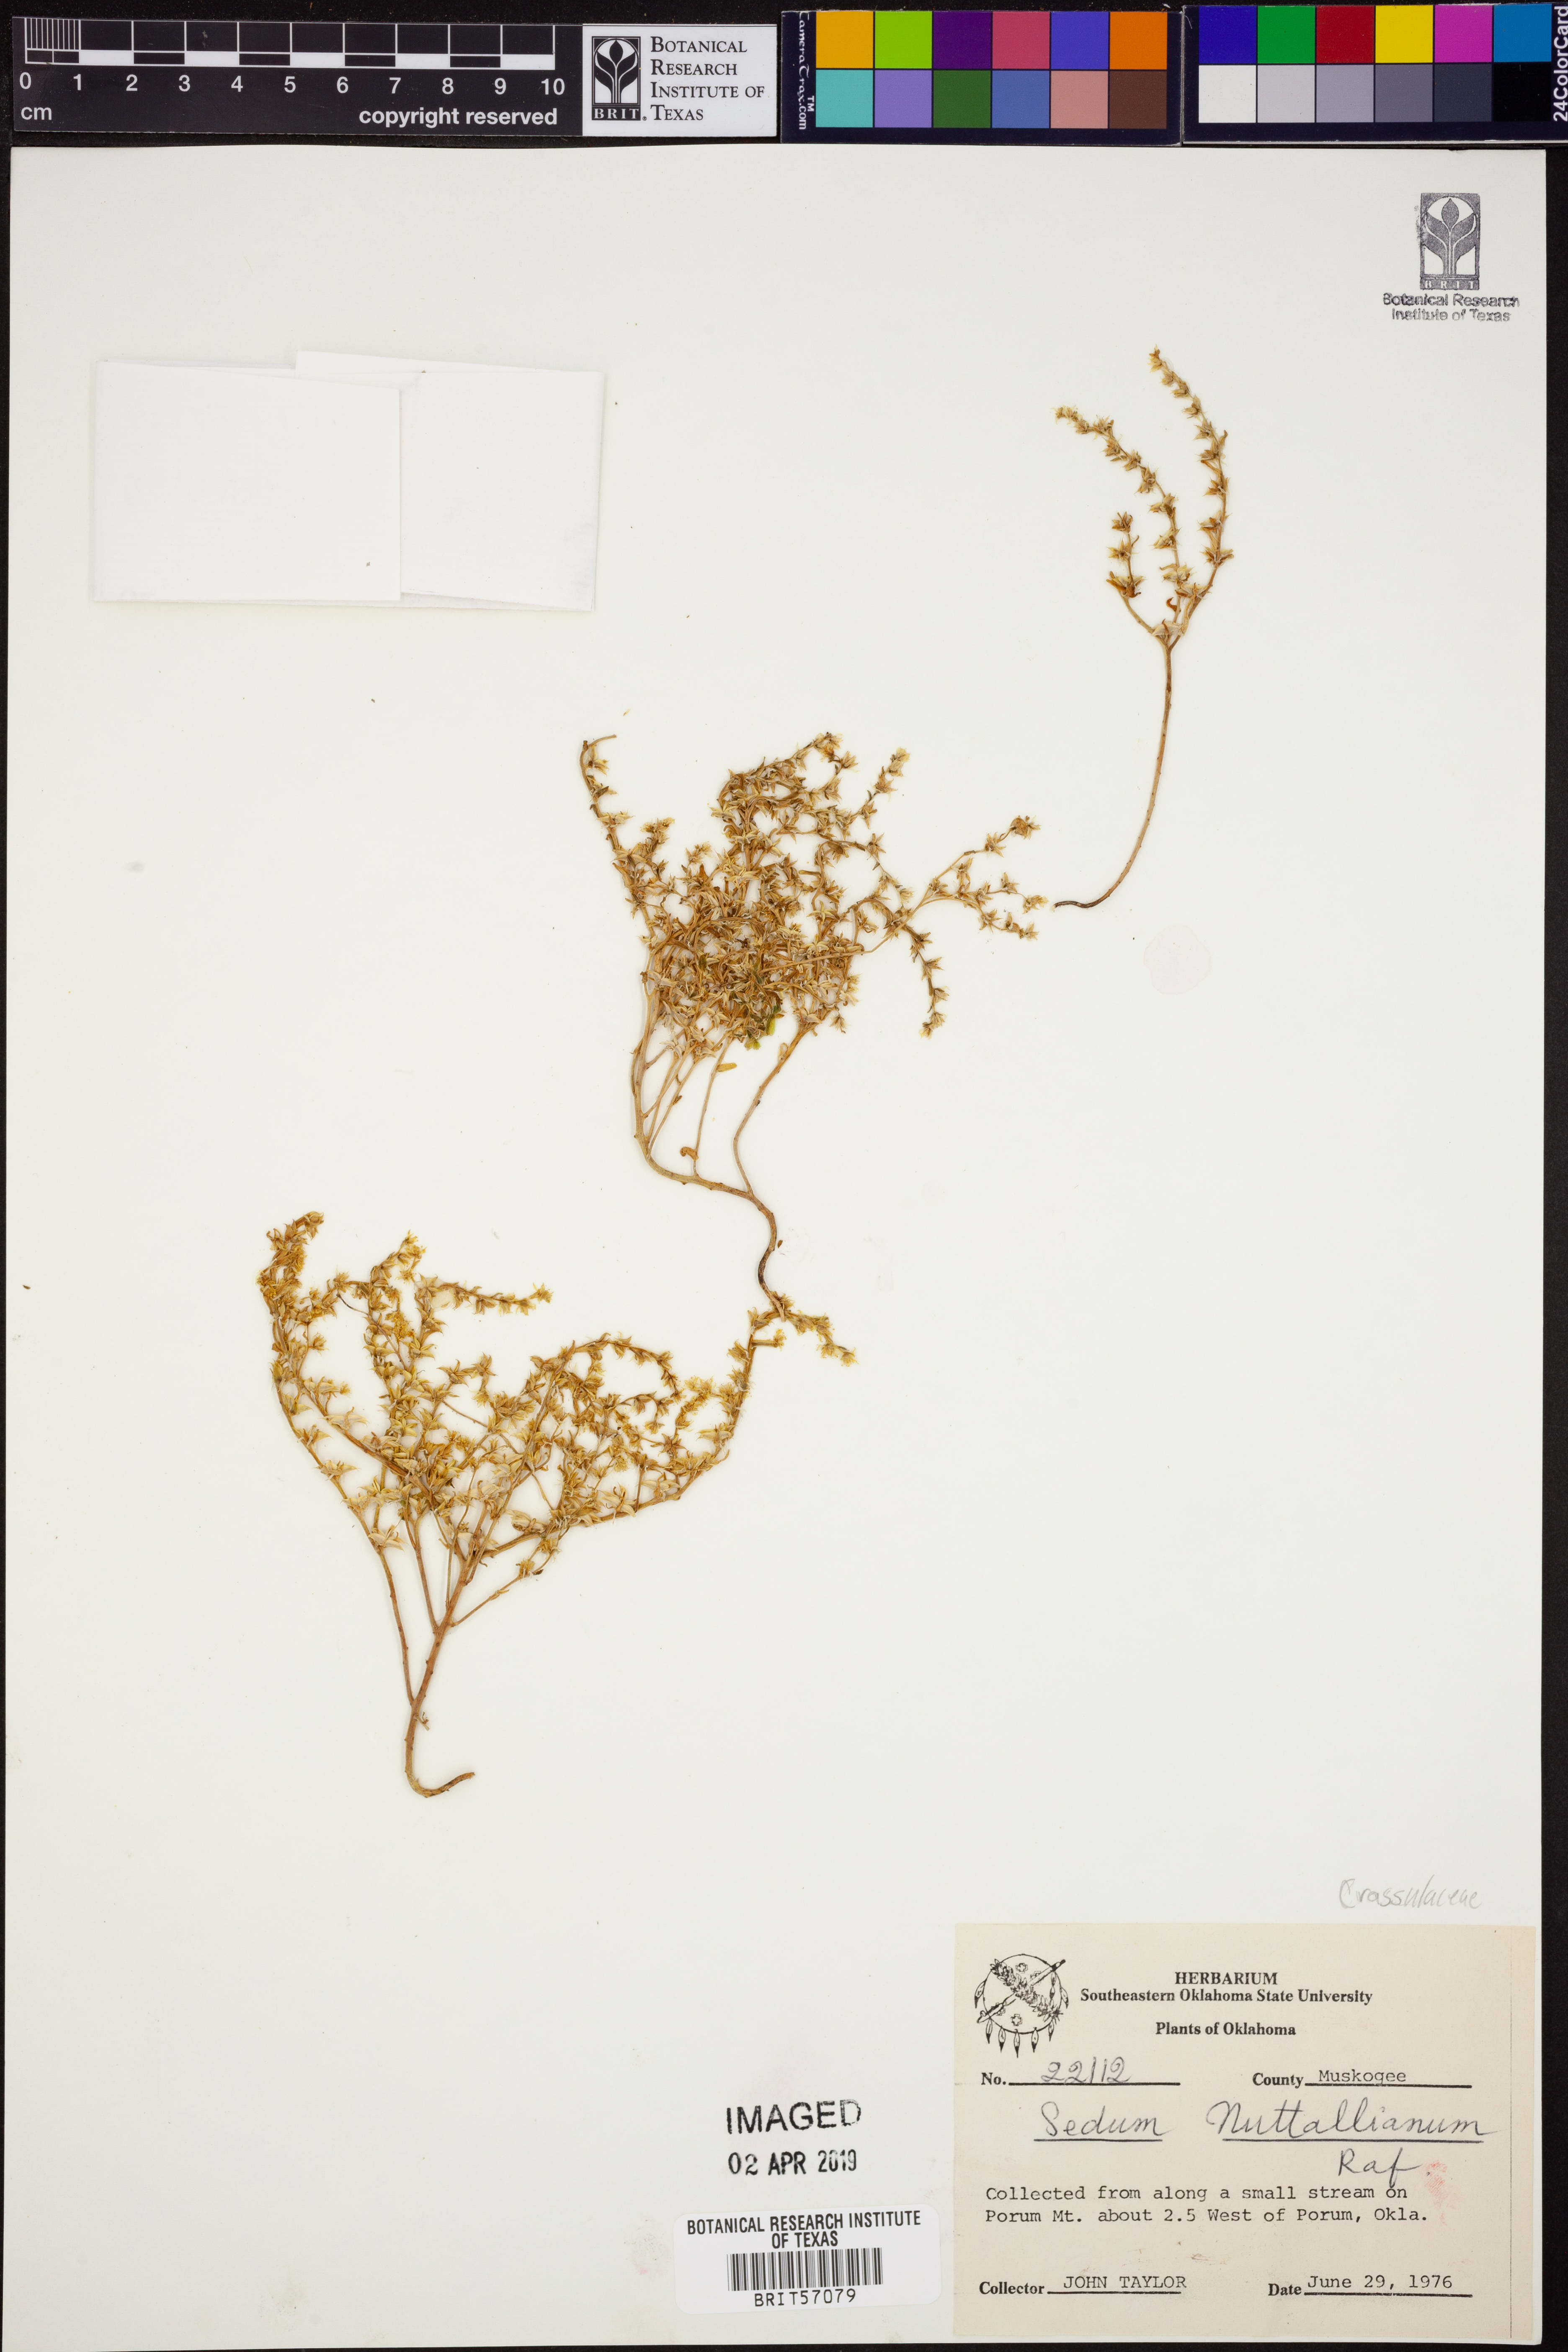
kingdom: Plantae
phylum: Tracheophyta
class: Magnoliopsida
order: Saxifragales
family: Crassulaceae
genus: Sedum
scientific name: Sedum nuttallii
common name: Yellow stonecrop
